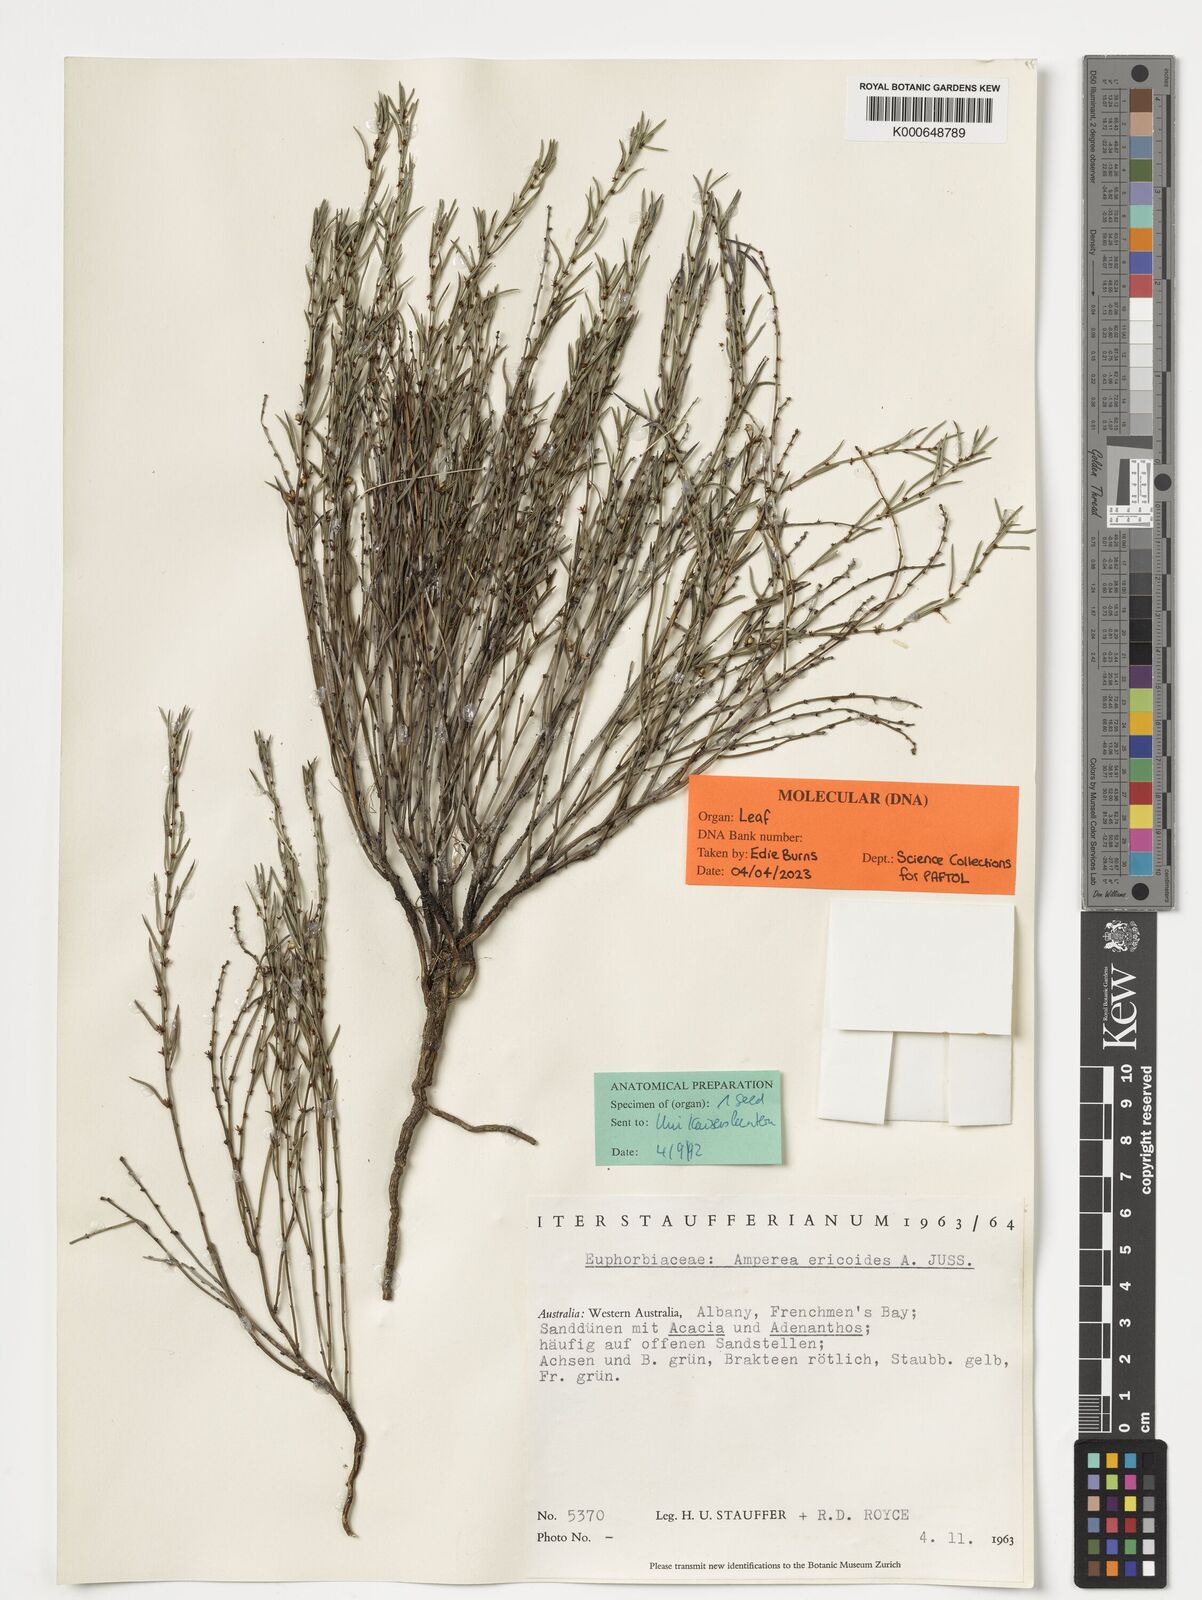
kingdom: Plantae
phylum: Tracheophyta
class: Magnoliopsida
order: Malpighiales
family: Euphorbiaceae
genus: Amperea
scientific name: Amperea ericoides
